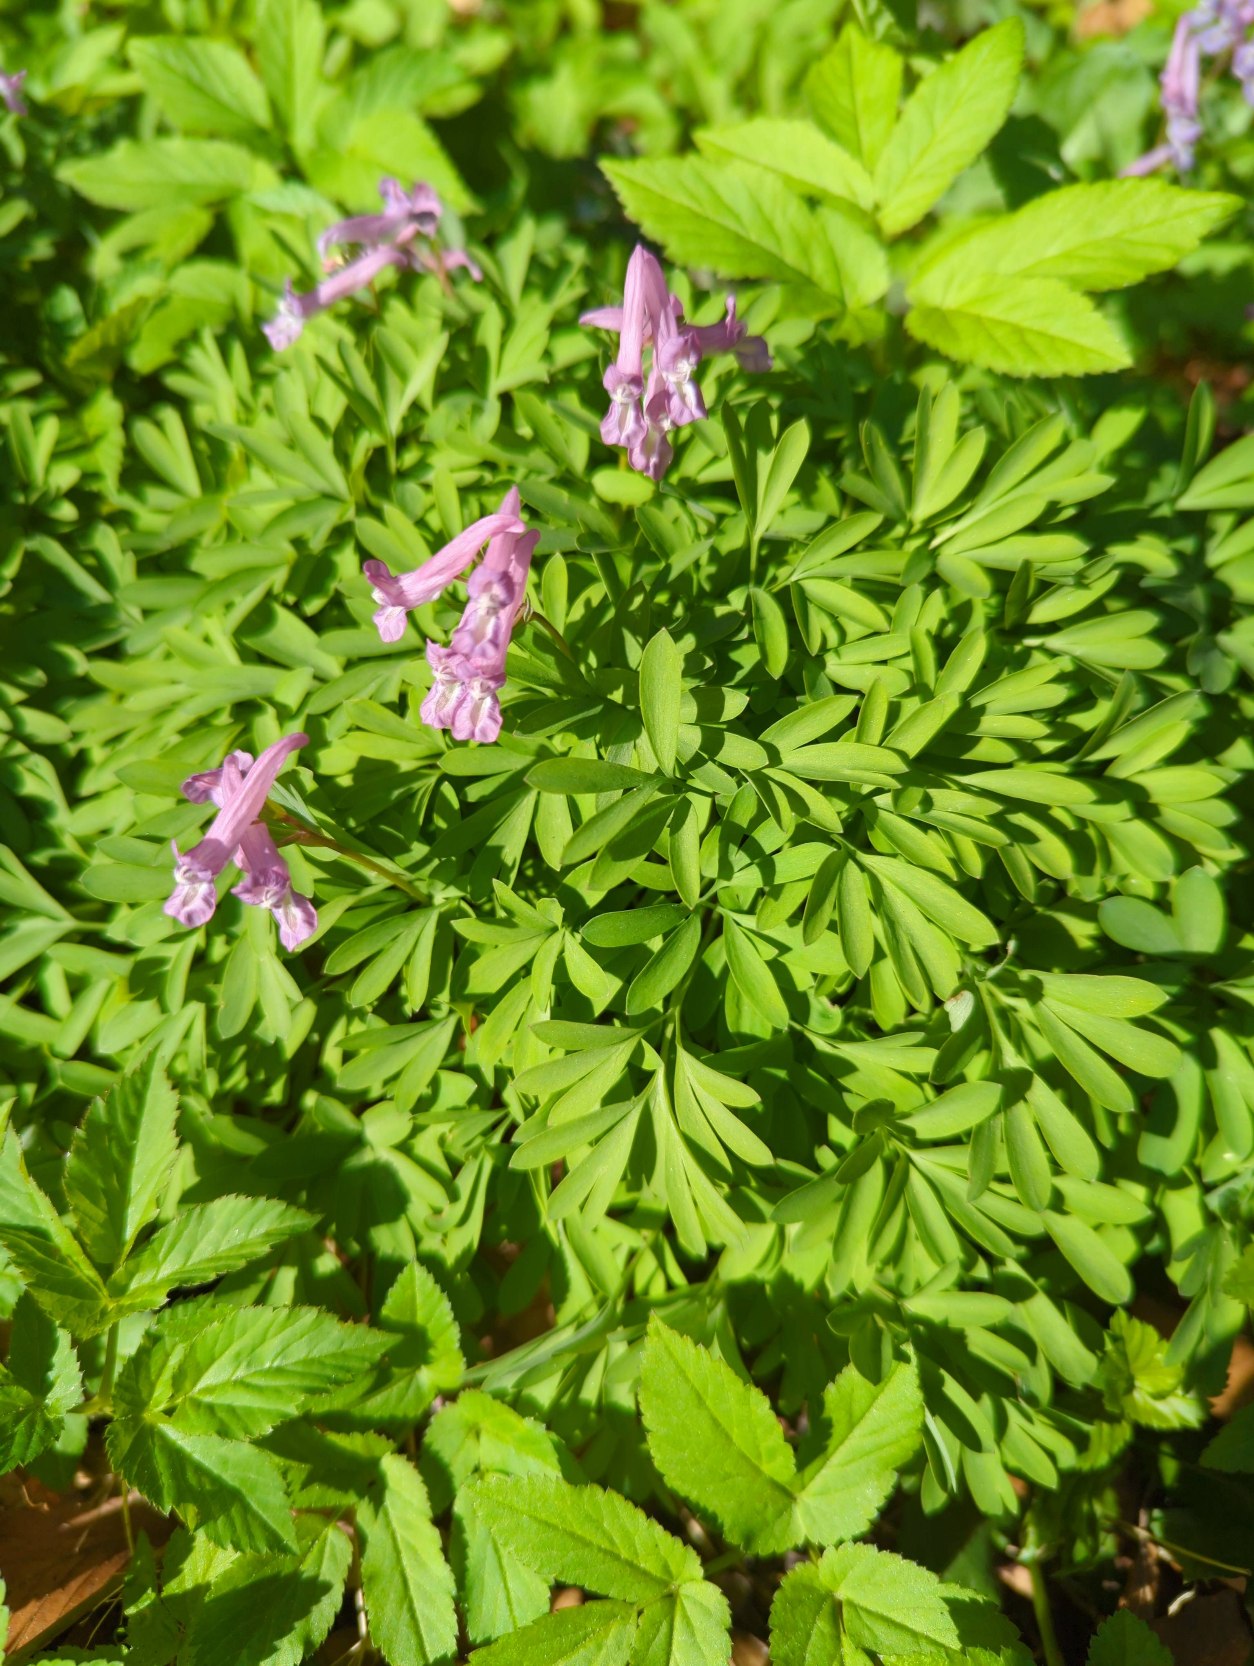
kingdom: Plantae
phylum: Tracheophyta
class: Magnoliopsida
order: Ranunculales
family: Papaveraceae
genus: Corydalis
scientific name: Corydalis solida
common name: Langstilket lærkespore
